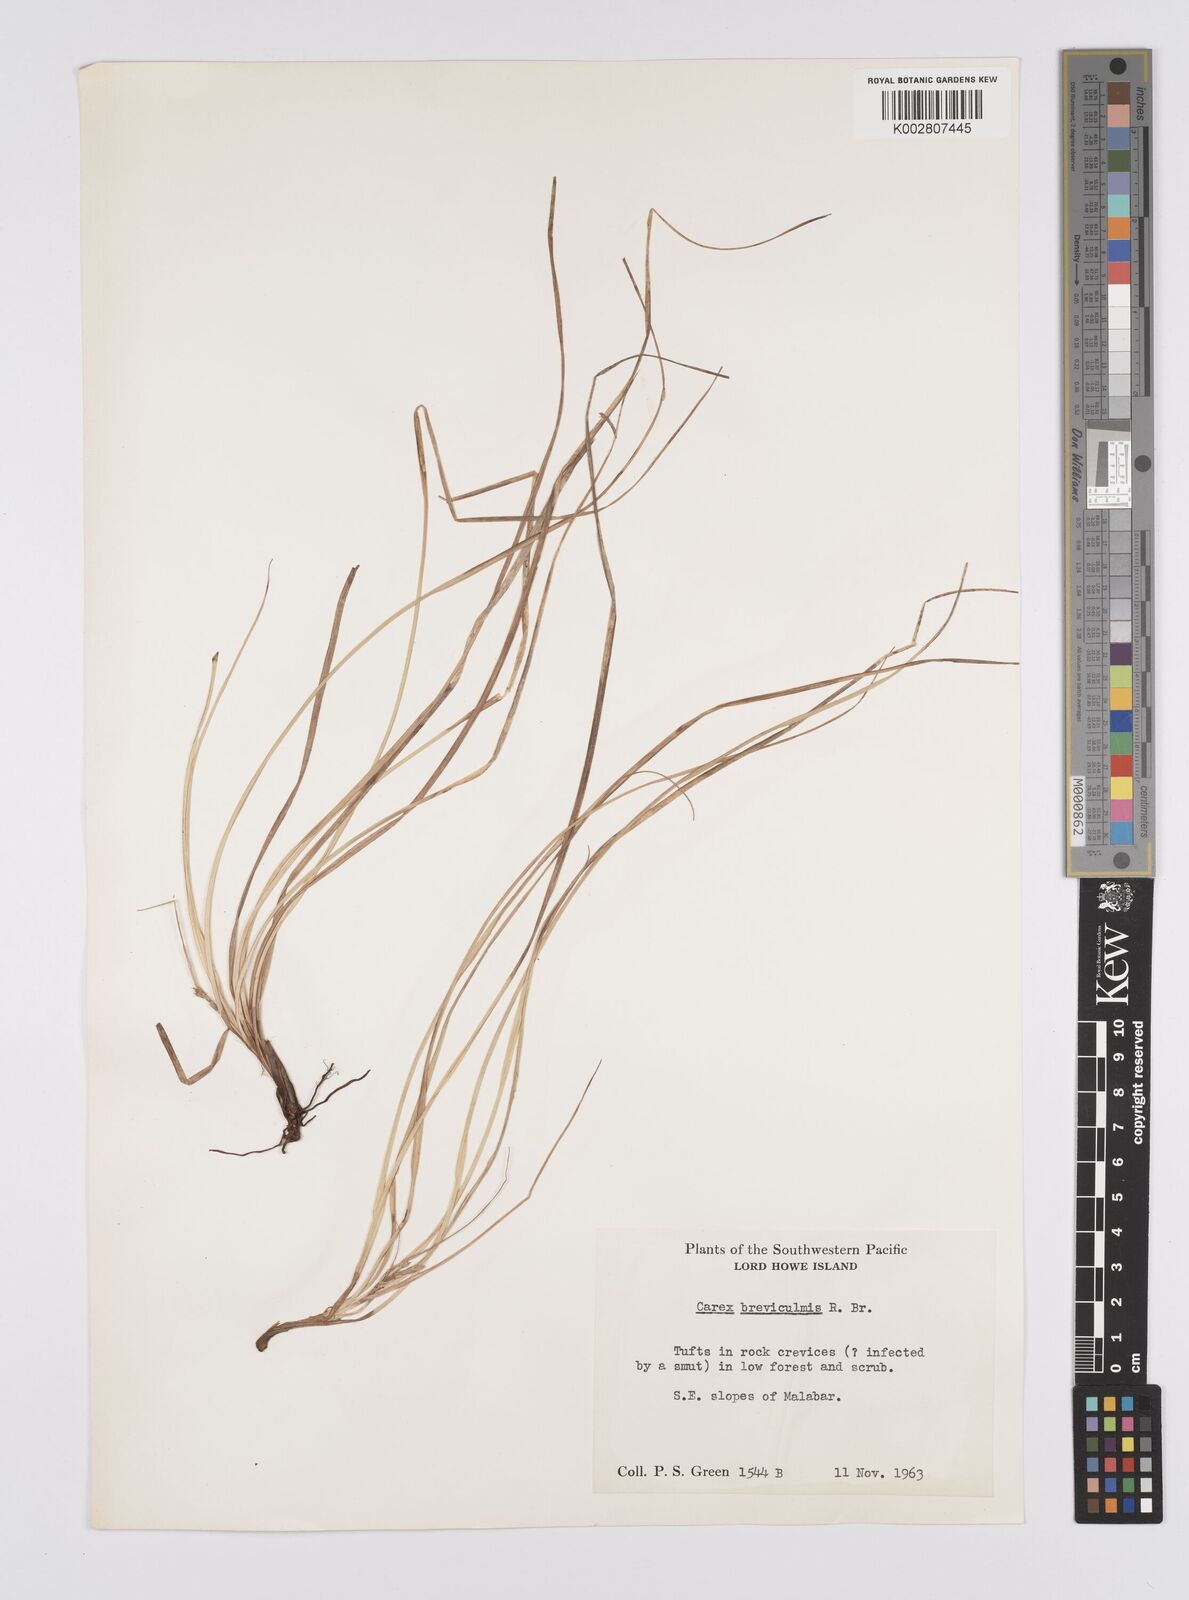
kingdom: Plantae
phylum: Tracheophyta
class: Liliopsida
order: Poales
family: Cyperaceae
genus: Carex
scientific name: Carex breviculmis
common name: Asian shortstem sedge
